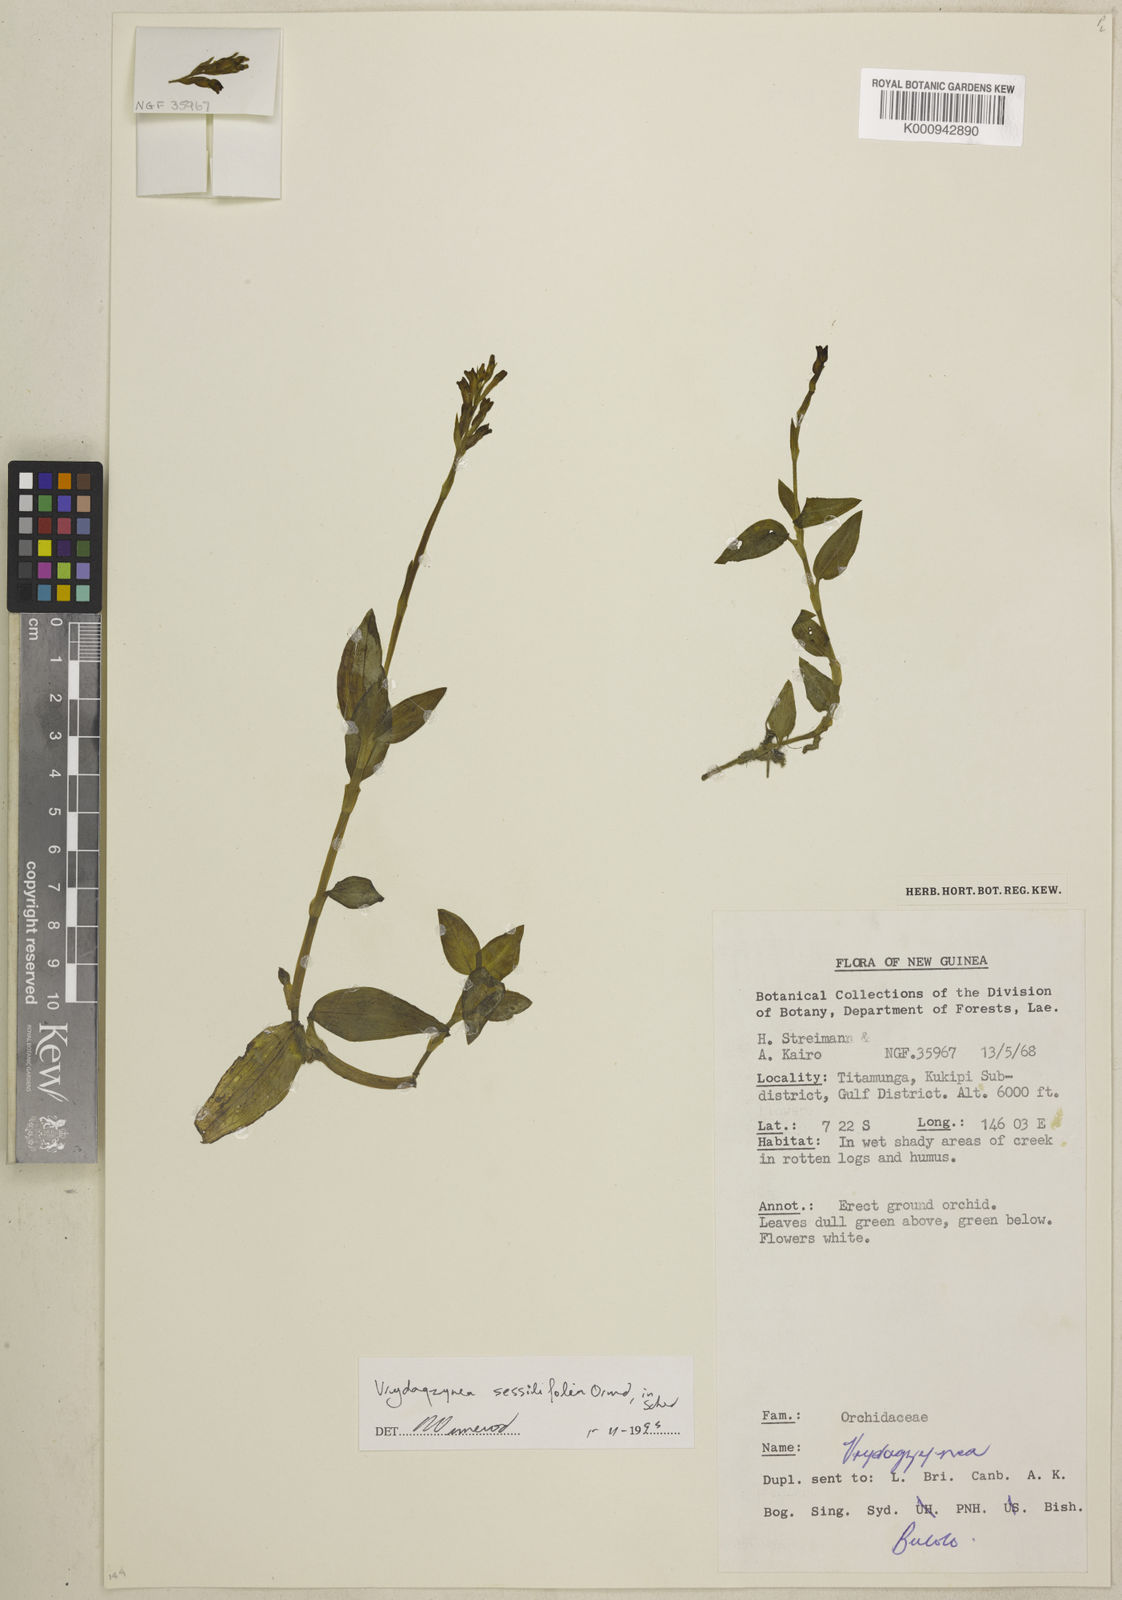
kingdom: Plantae
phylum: Tracheophyta
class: Liliopsida
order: Asparagales
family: Orchidaceae
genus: Vrydagzynea
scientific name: Vrydagzynea sessilifolia
